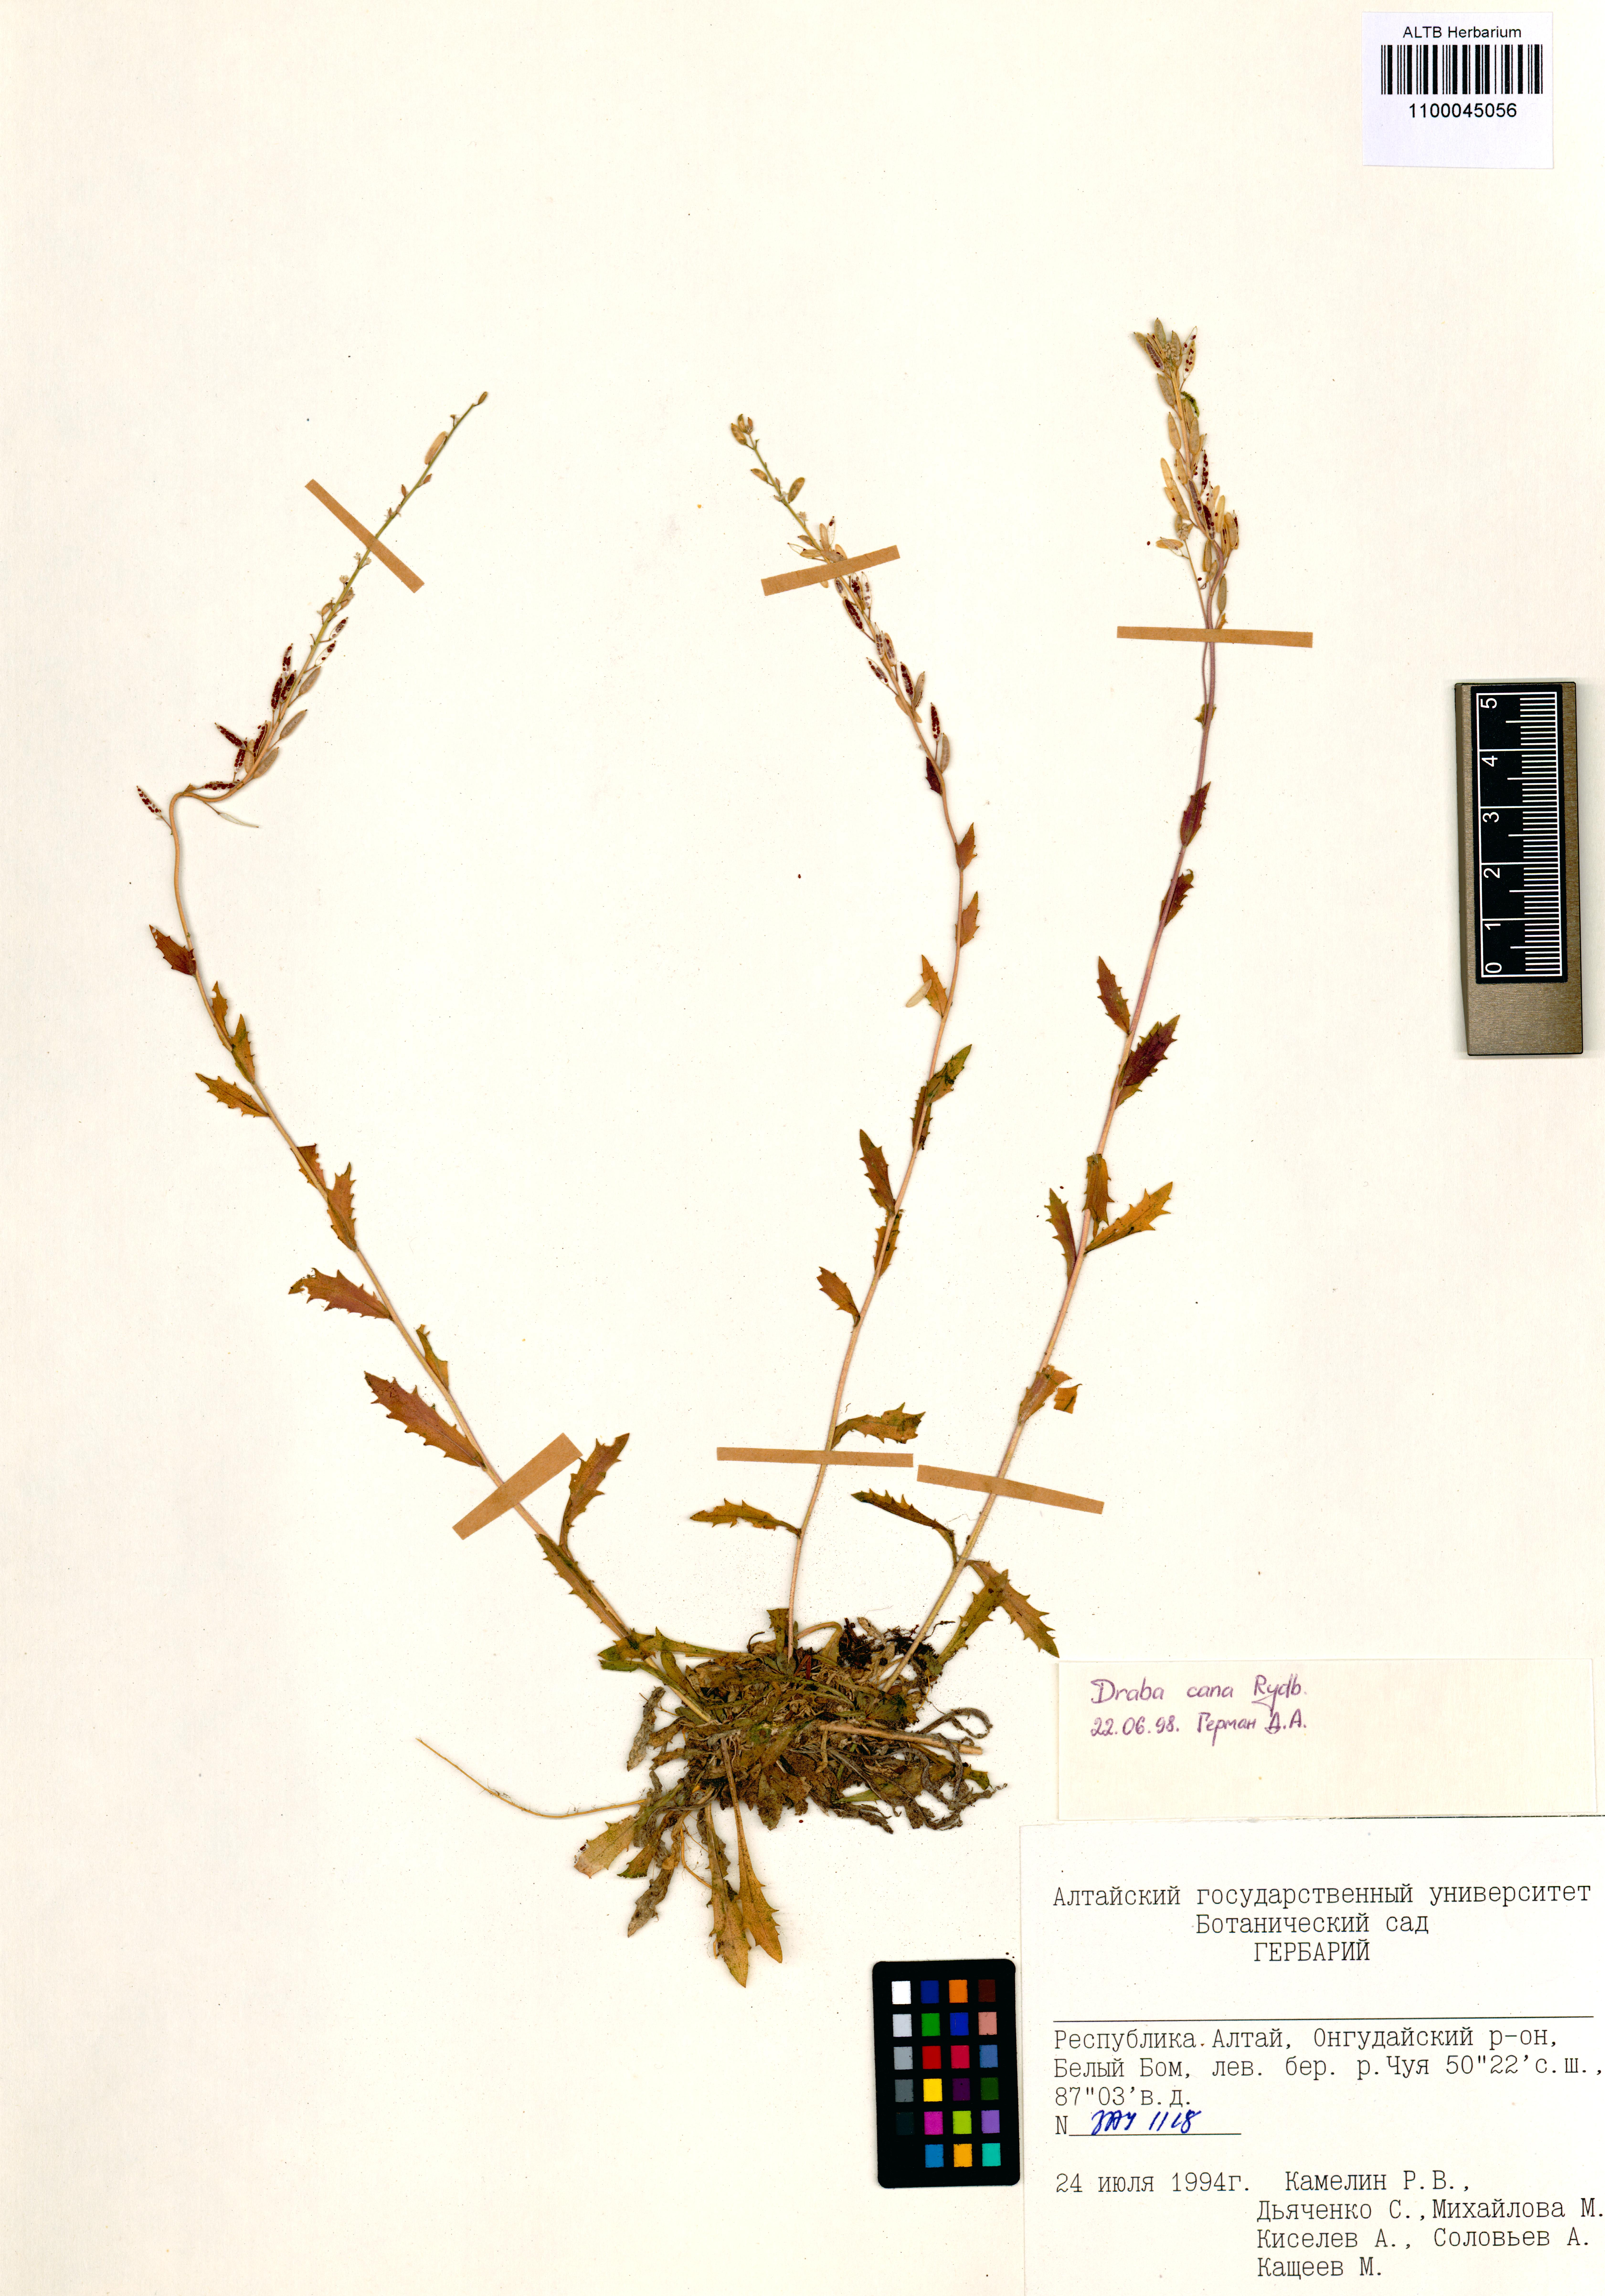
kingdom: Plantae
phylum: Tracheophyta
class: Magnoliopsida
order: Brassicales
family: Brassicaceae
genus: Draba
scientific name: Draba cana
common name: Hoary draba
